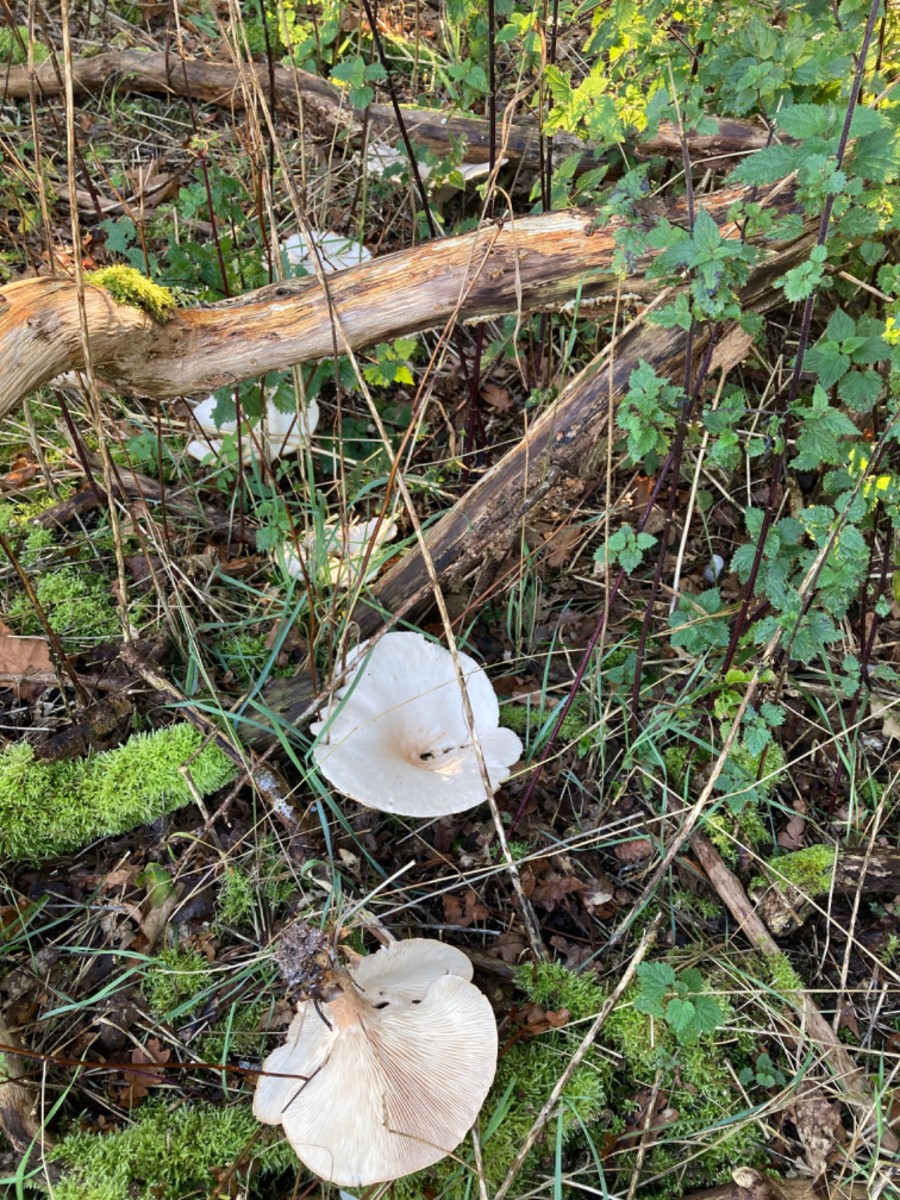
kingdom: Fungi
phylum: Basidiomycota
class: Agaricomycetes
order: Agaricales
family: Tricholomataceae
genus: Aspropaxillus
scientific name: Aspropaxillus giganteus
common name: kæmpe-tragtridderhat
